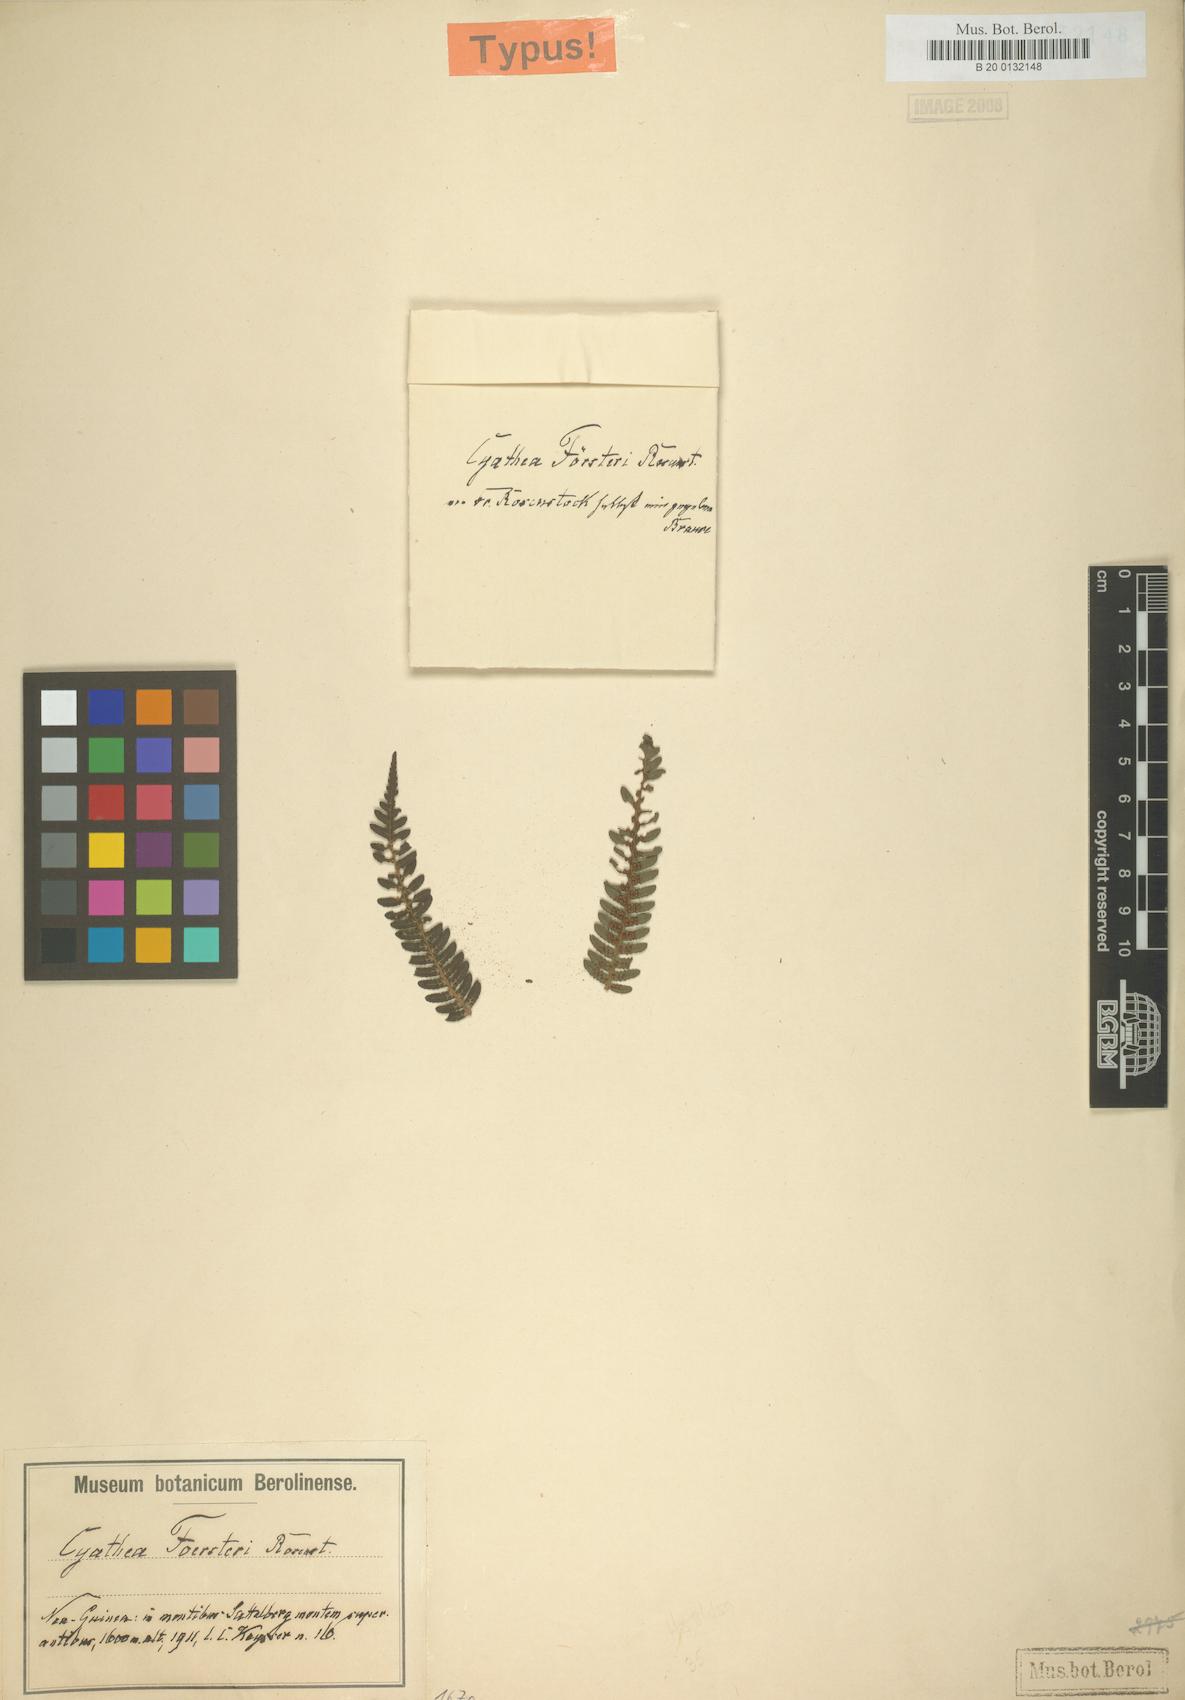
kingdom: Plantae
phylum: Tracheophyta
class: Polypodiopsida
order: Cyatheales
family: Cyatheaceae
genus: Alsophila
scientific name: Alsophila foersteri
